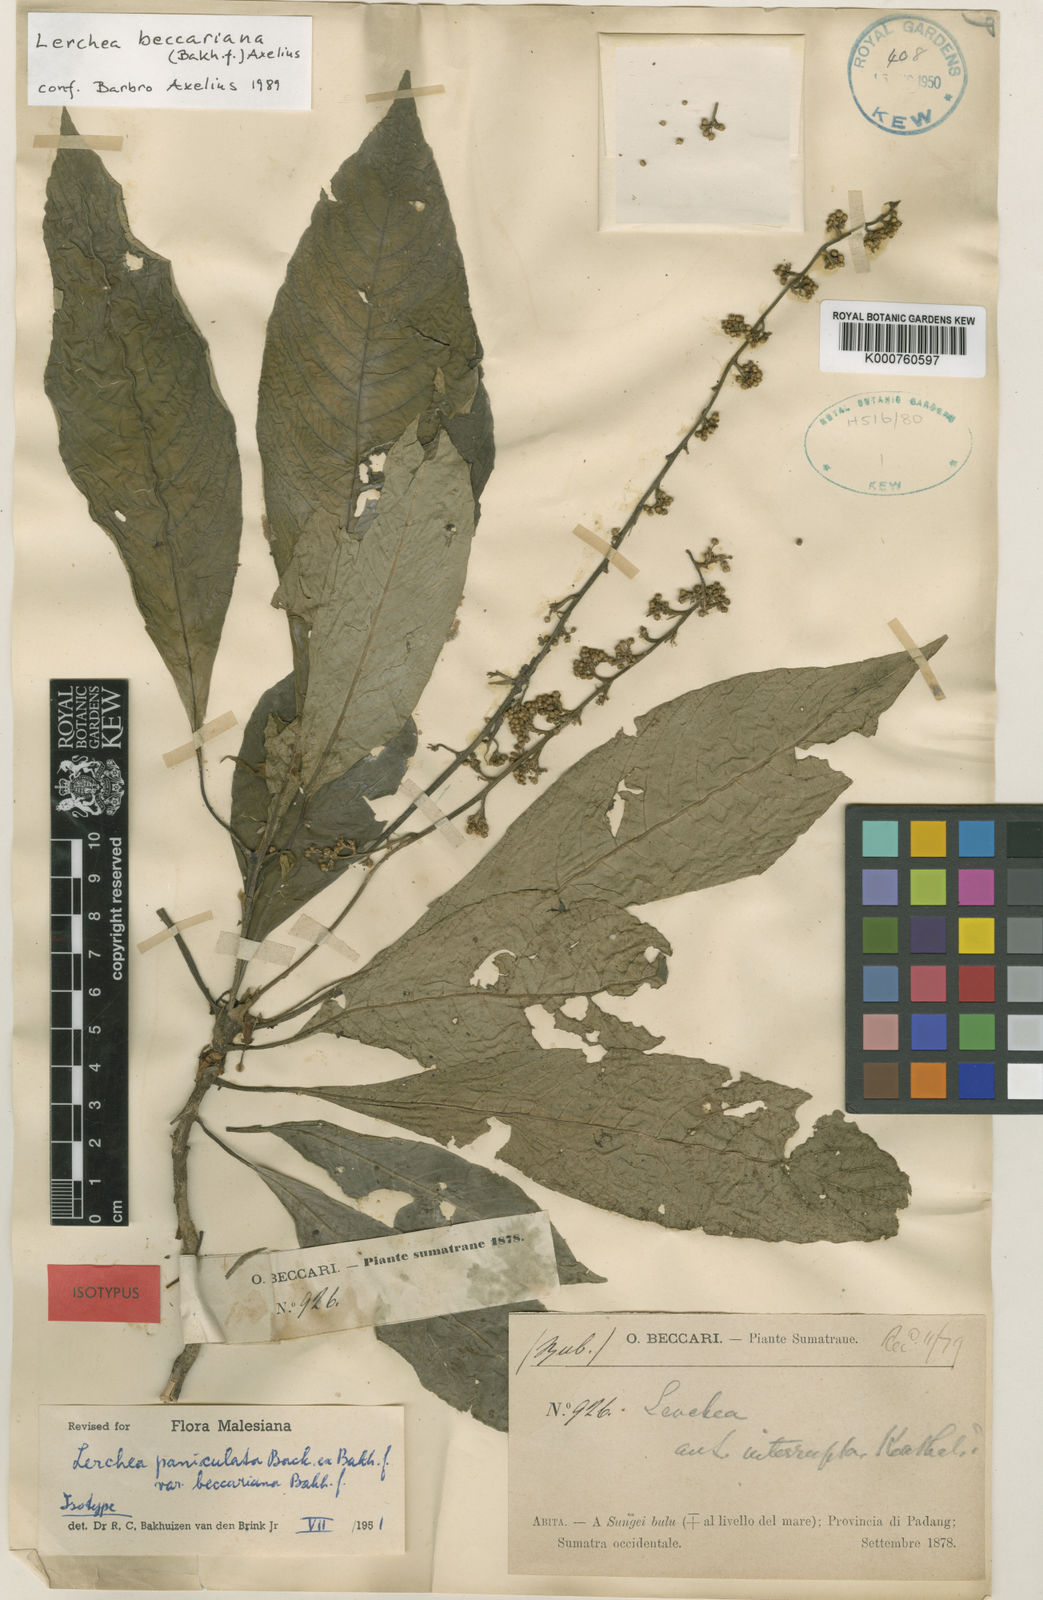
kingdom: Plantae
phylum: Tracheophyta
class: Magnoliopsida
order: Gentianales
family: Rubiaceae
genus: Lerchea
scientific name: Lerchea paniculata
